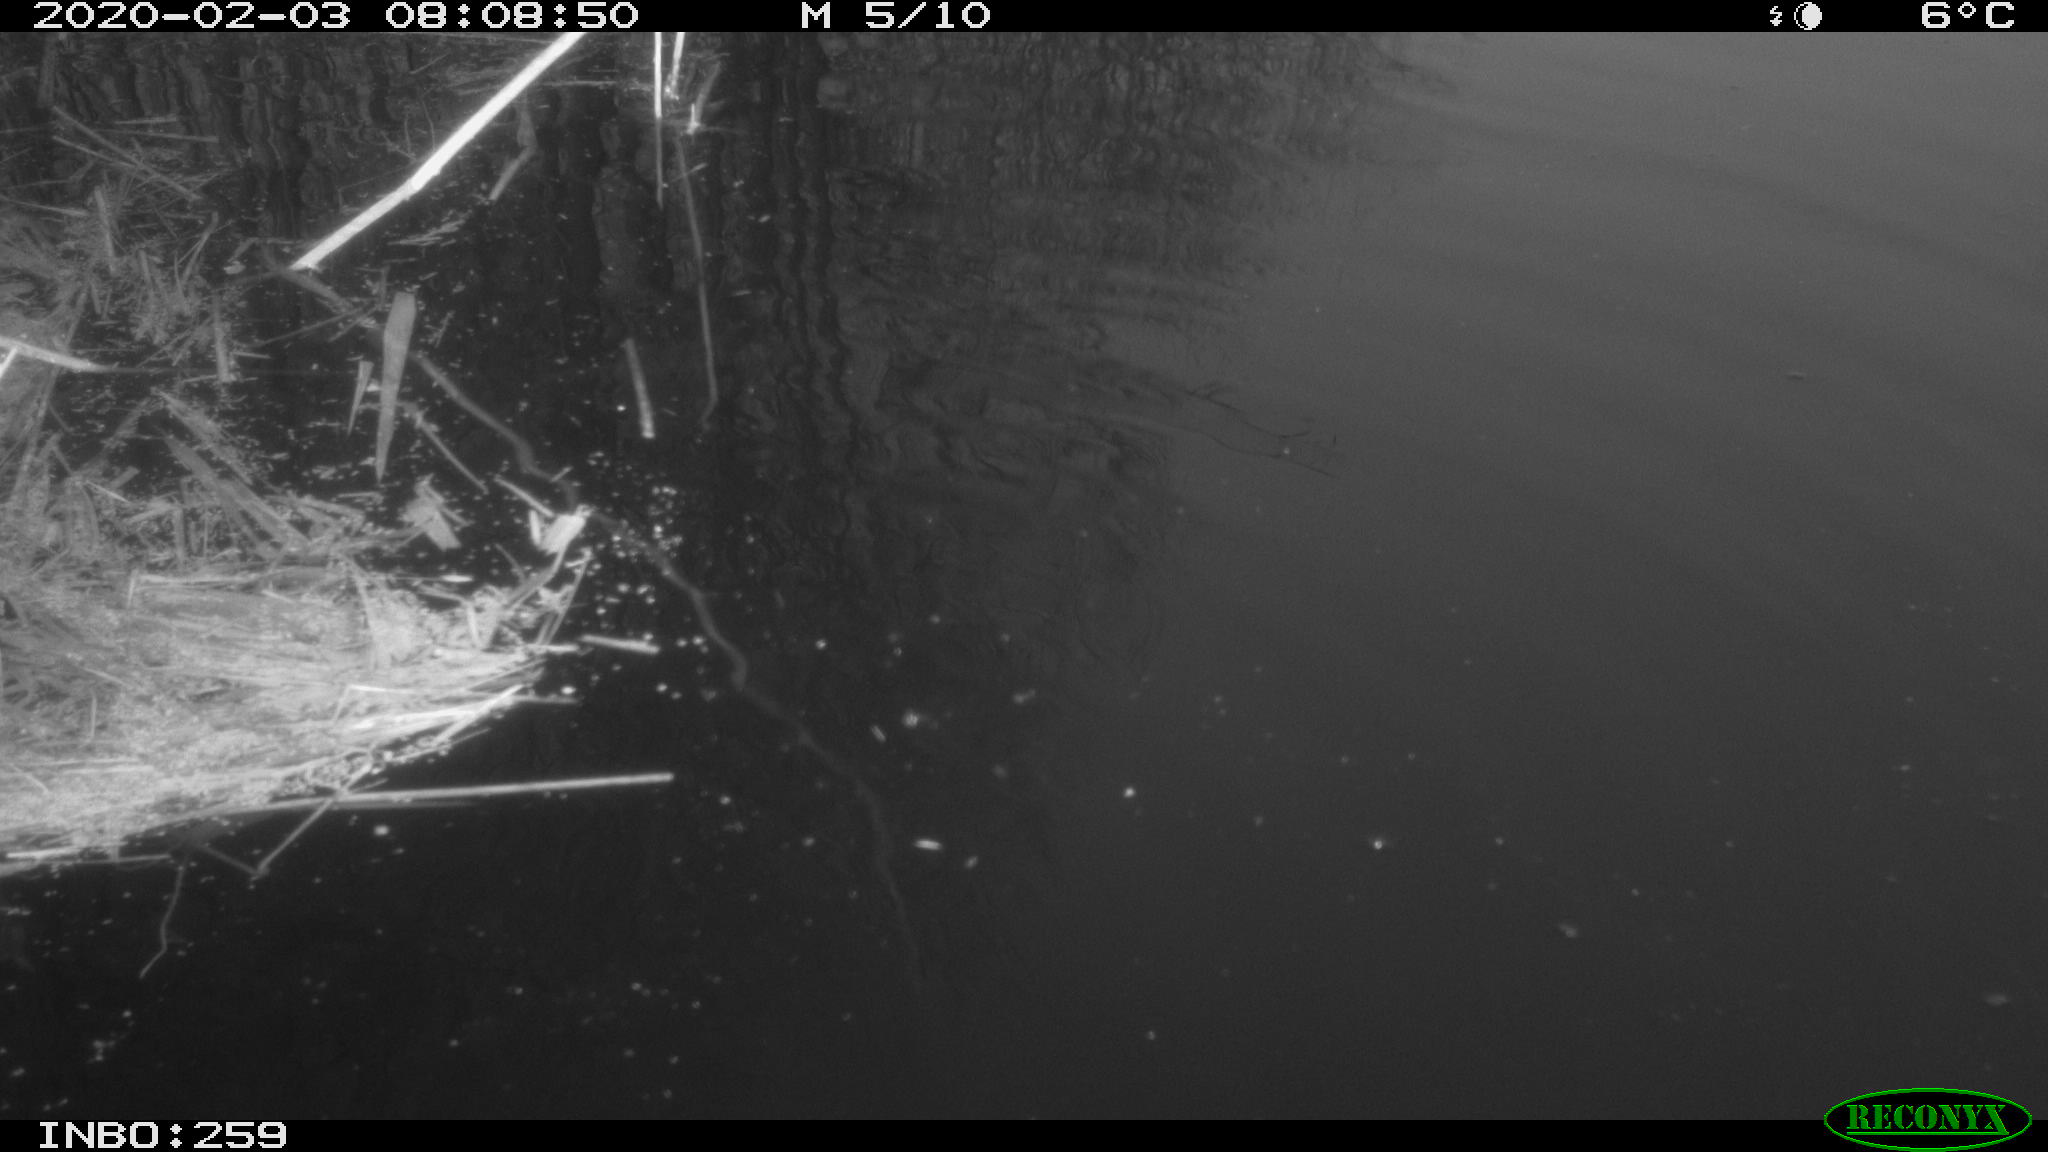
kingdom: Animalia
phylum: Chordata
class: Aves
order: Gruiformes
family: Rallidae
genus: Gallinula
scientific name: Gallinula chloropus
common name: Common moorhen
